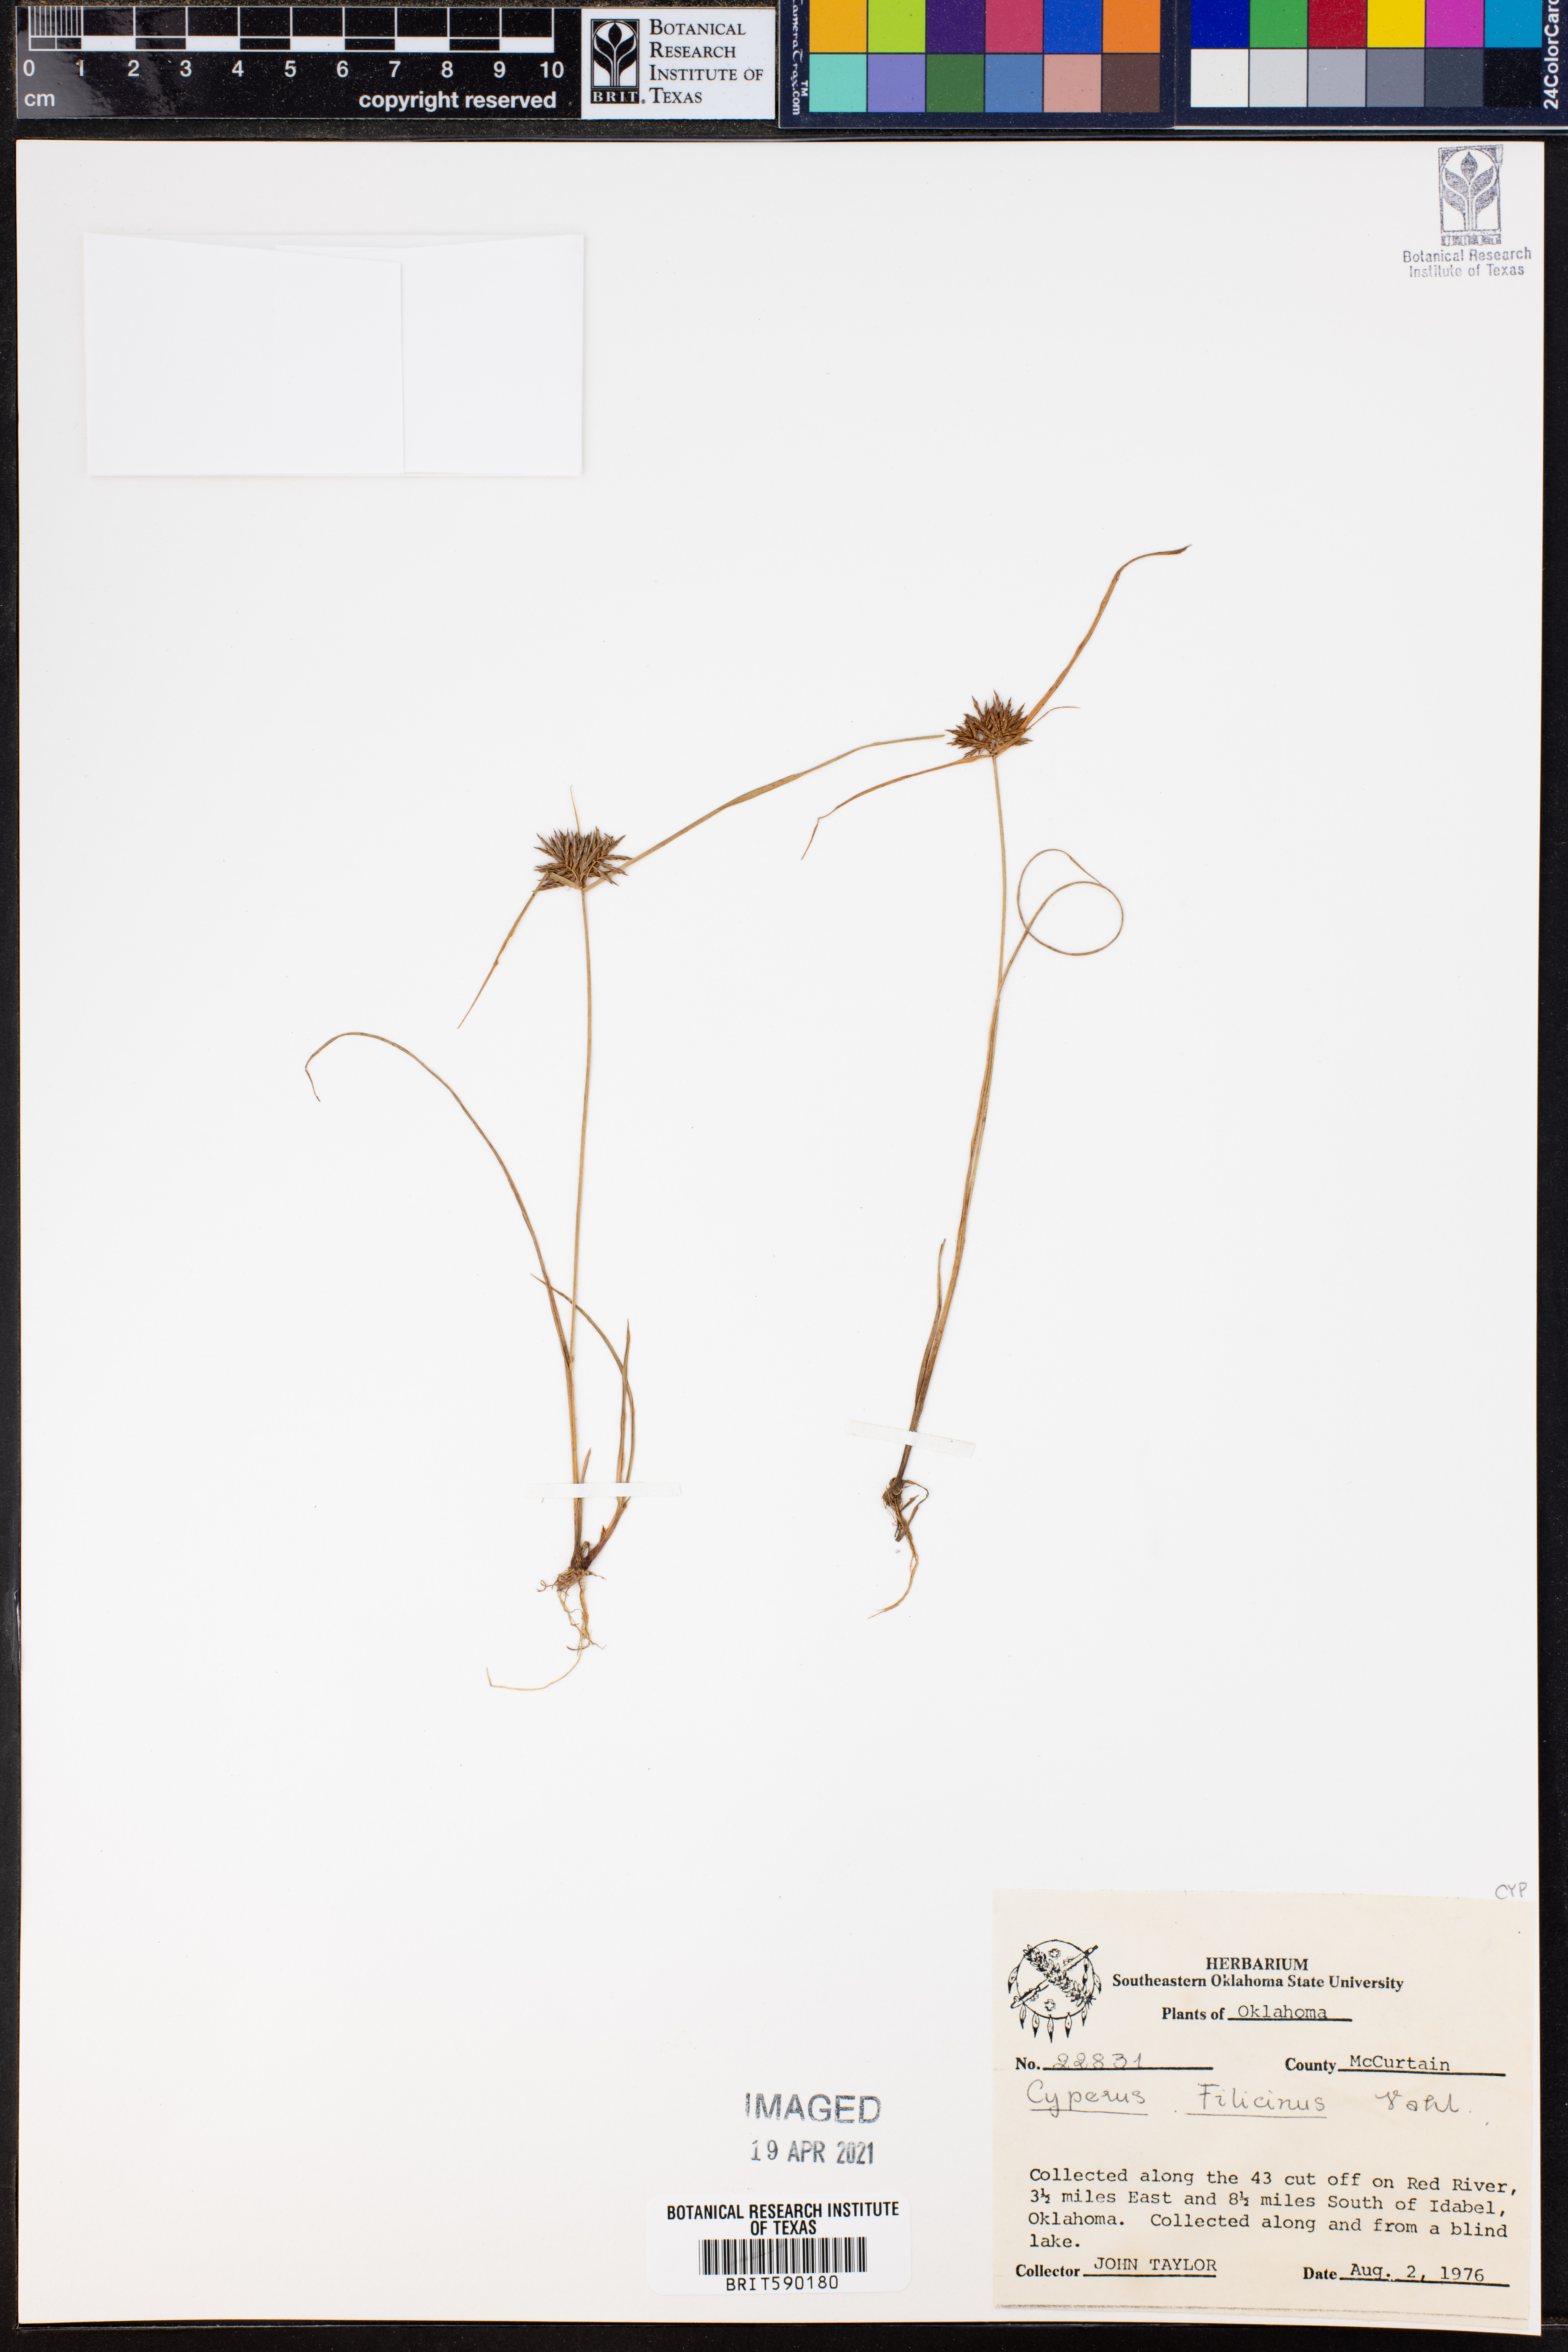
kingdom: Plantae
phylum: Tracheophyta
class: Liliopsida
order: Poales
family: Cyperaceae
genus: Cyperus
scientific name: Cyperus lanceolatus
